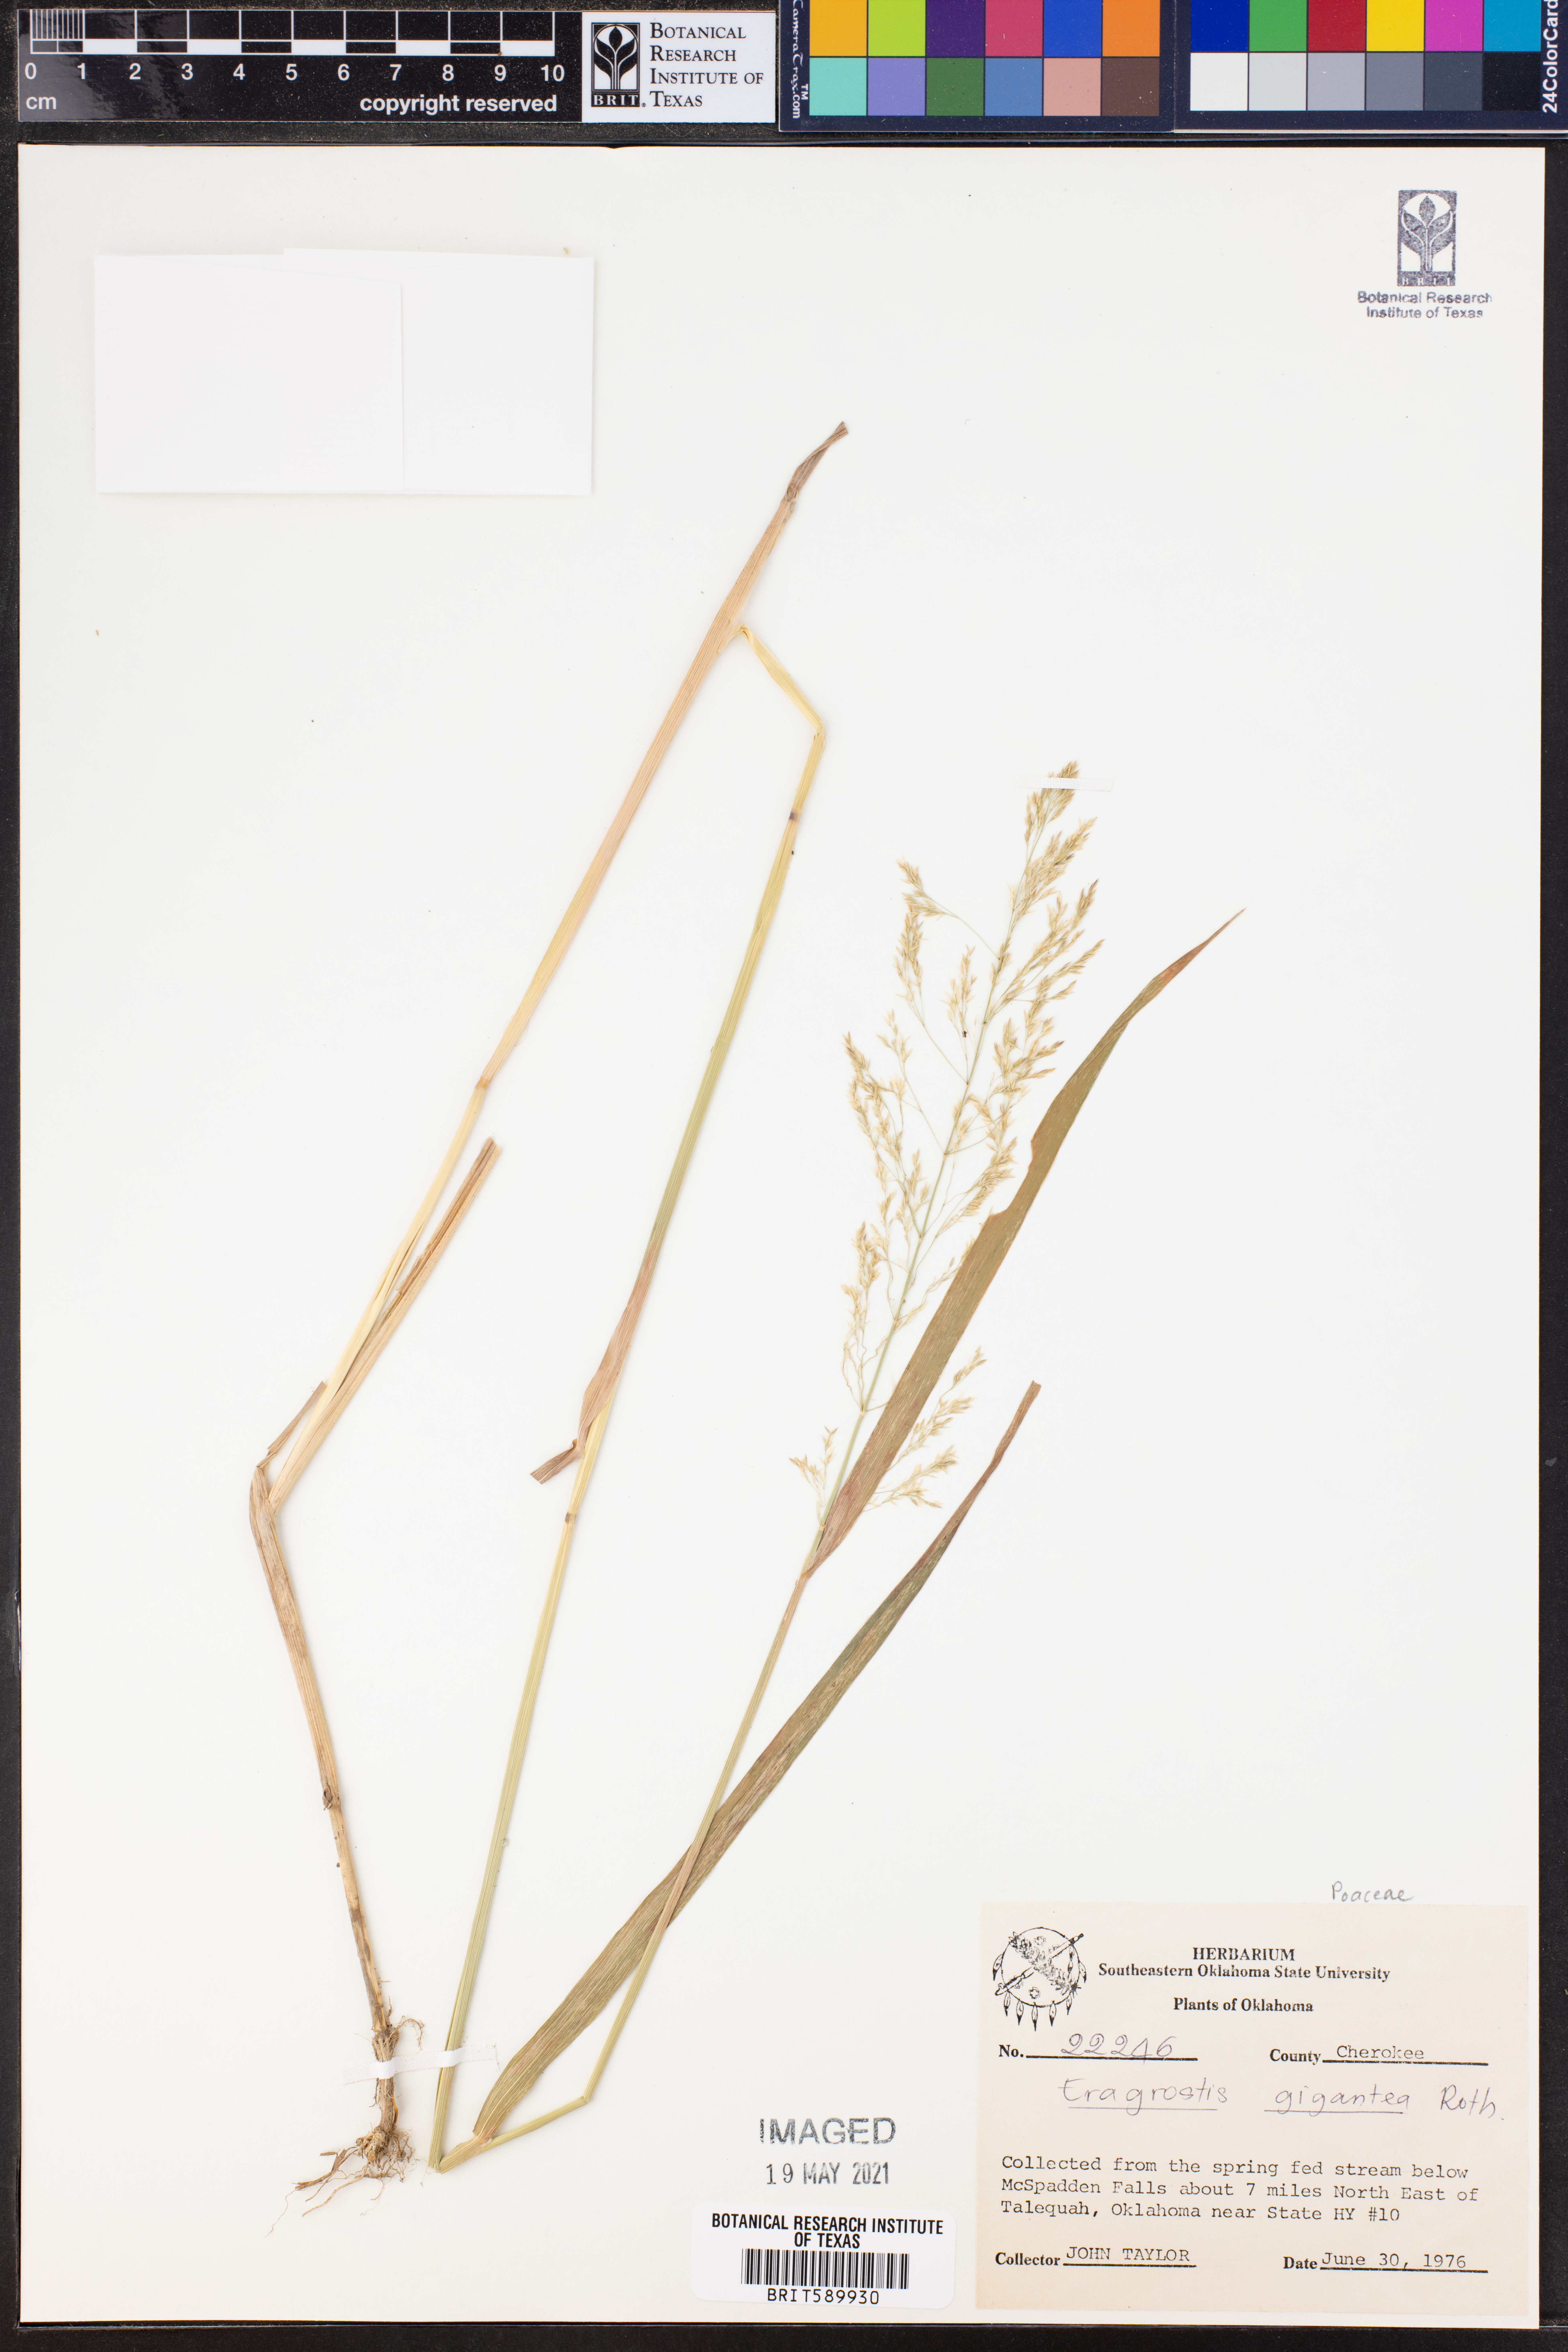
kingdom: Plantae
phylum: Tracheophyta
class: Liliopsida
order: Poales
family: Poaceae
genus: Eragrostis
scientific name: Eragrostis prolifera
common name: Dominican lovegrass
